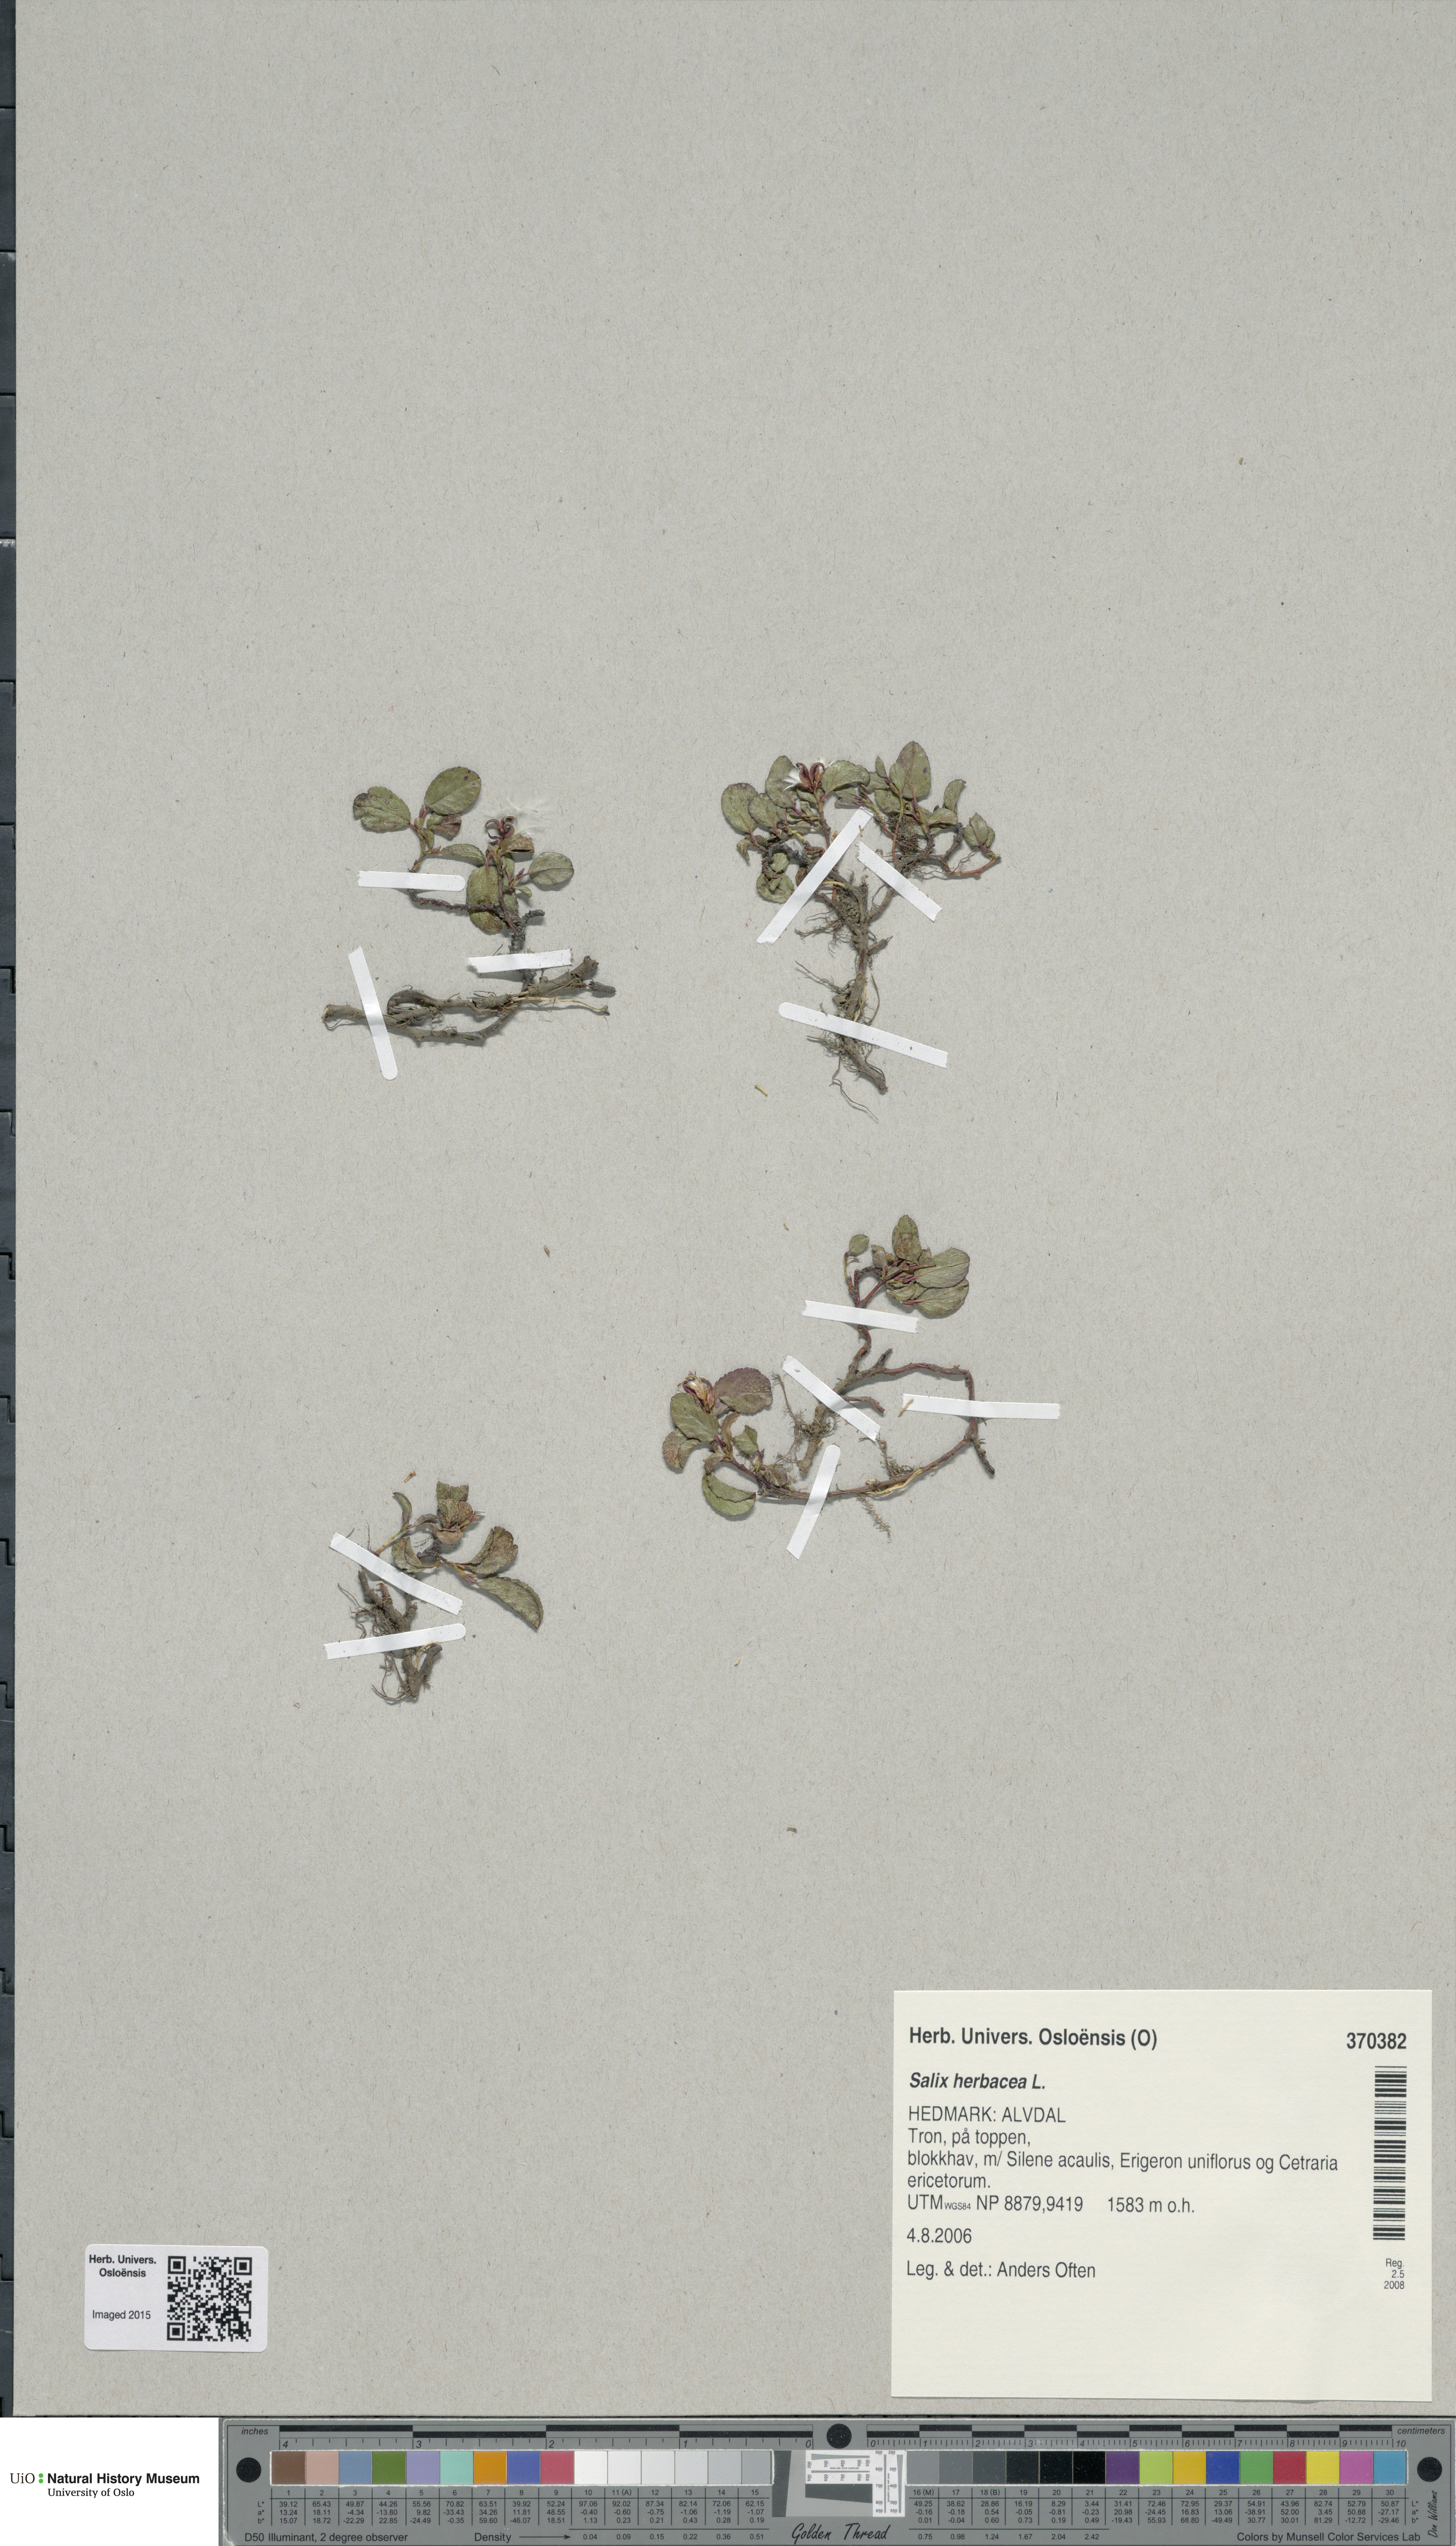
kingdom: Plantae
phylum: Tracheophyta
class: Magnoliopsida
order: Malpighiales
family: Salicaceae
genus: Salix
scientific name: Salix herbacea
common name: Dwarf willow
